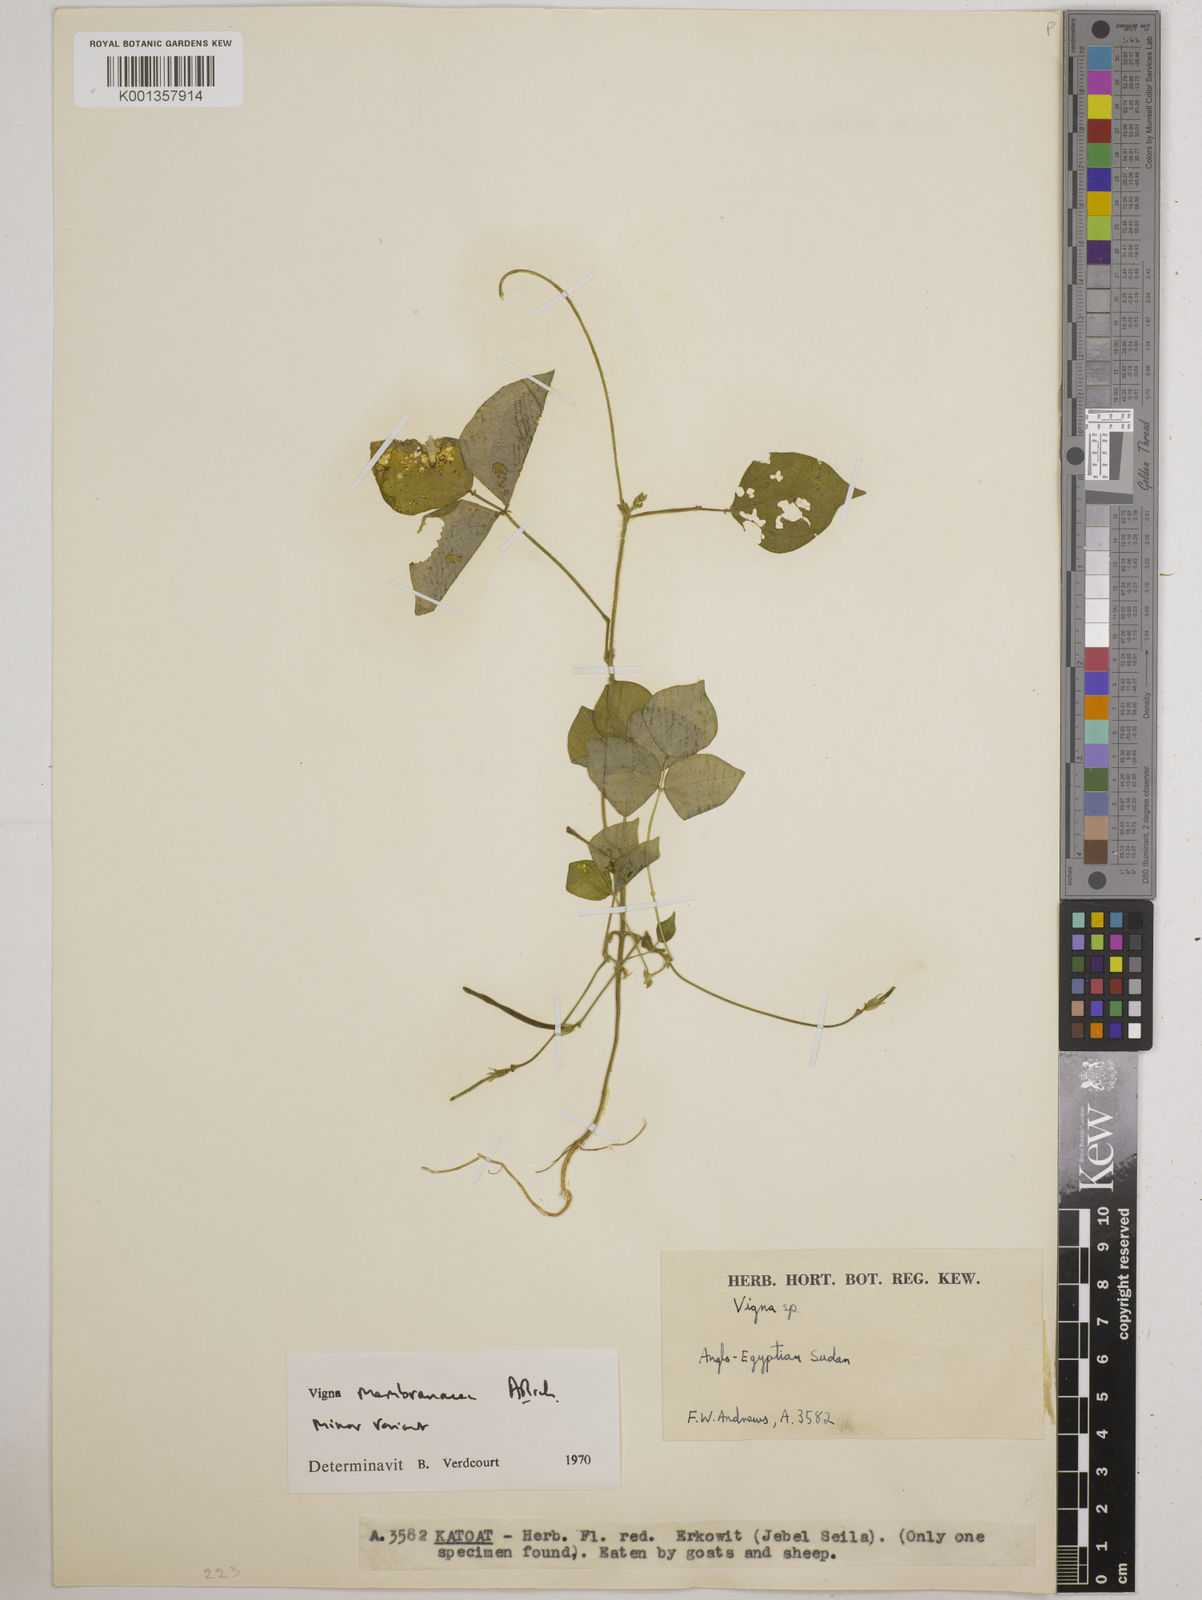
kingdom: Plantae
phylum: Tracheophyta
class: Magnoliopsida
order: Fabales
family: Fabaceae
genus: Vigna
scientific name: Vigna
